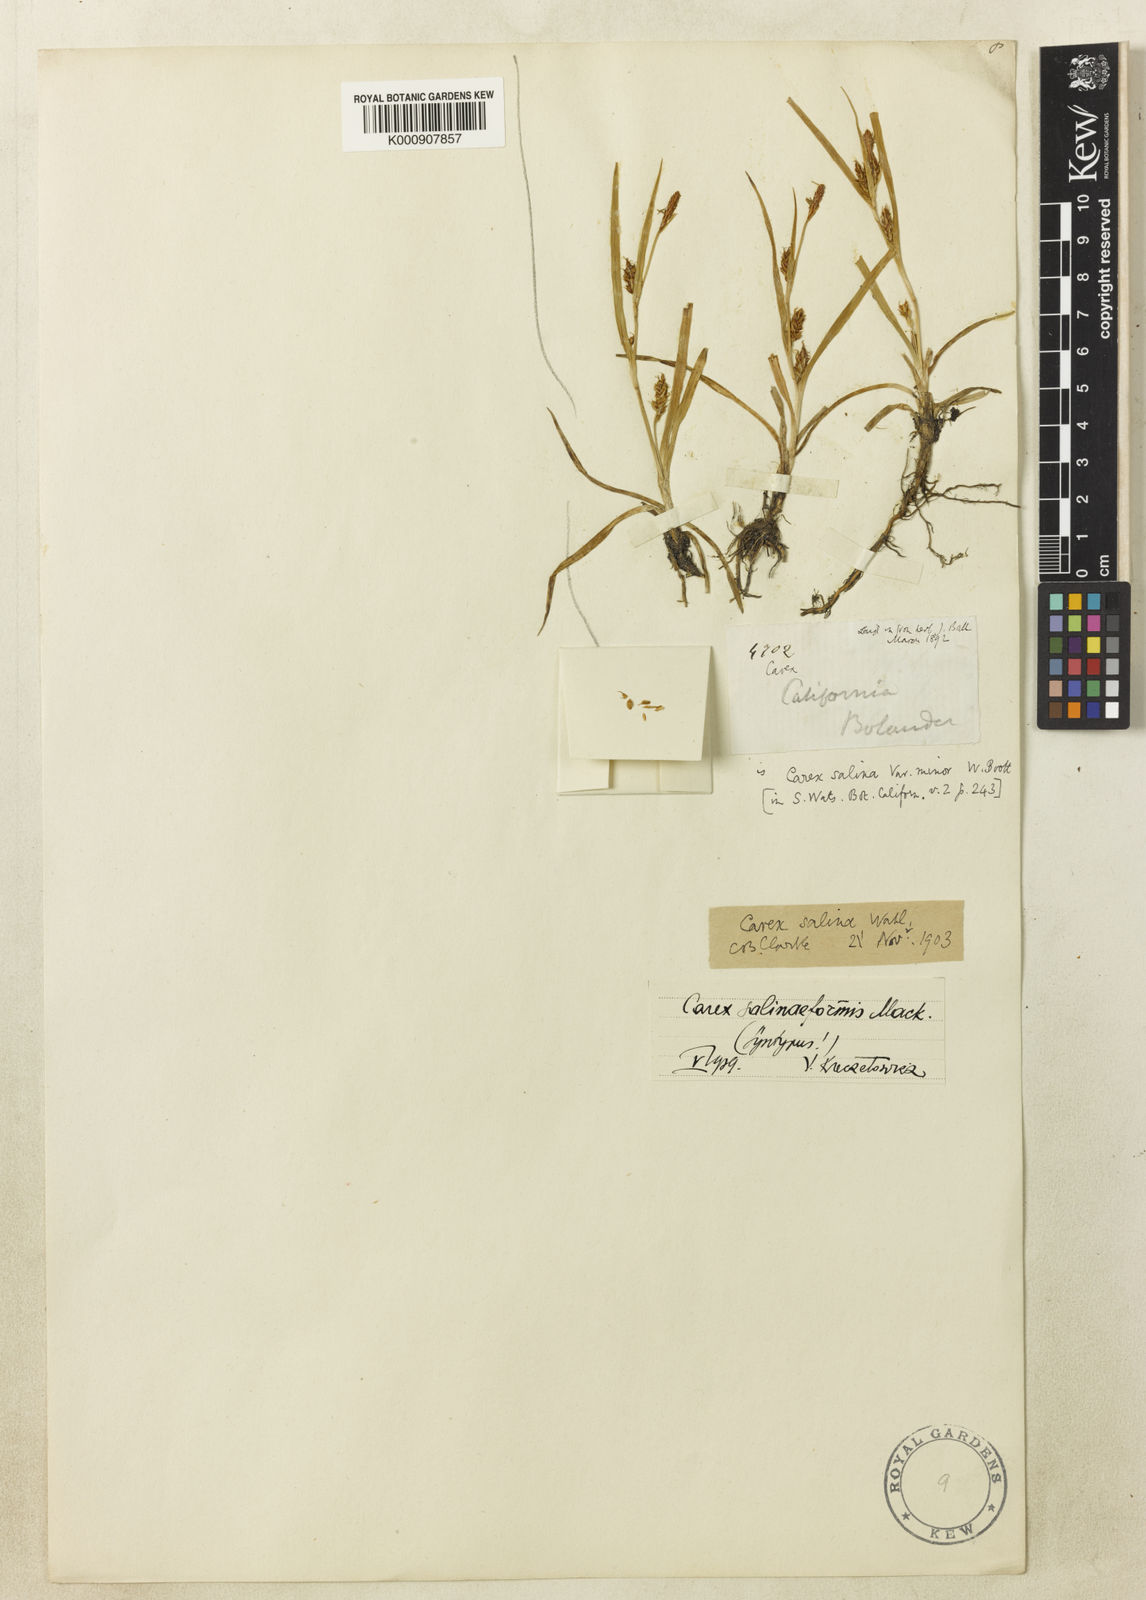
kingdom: Plantae
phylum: Tracheophyta
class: Liliopsida
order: Poales
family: Cyperaceae
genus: Carex
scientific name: Carex hassei
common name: Hasse's sedge
